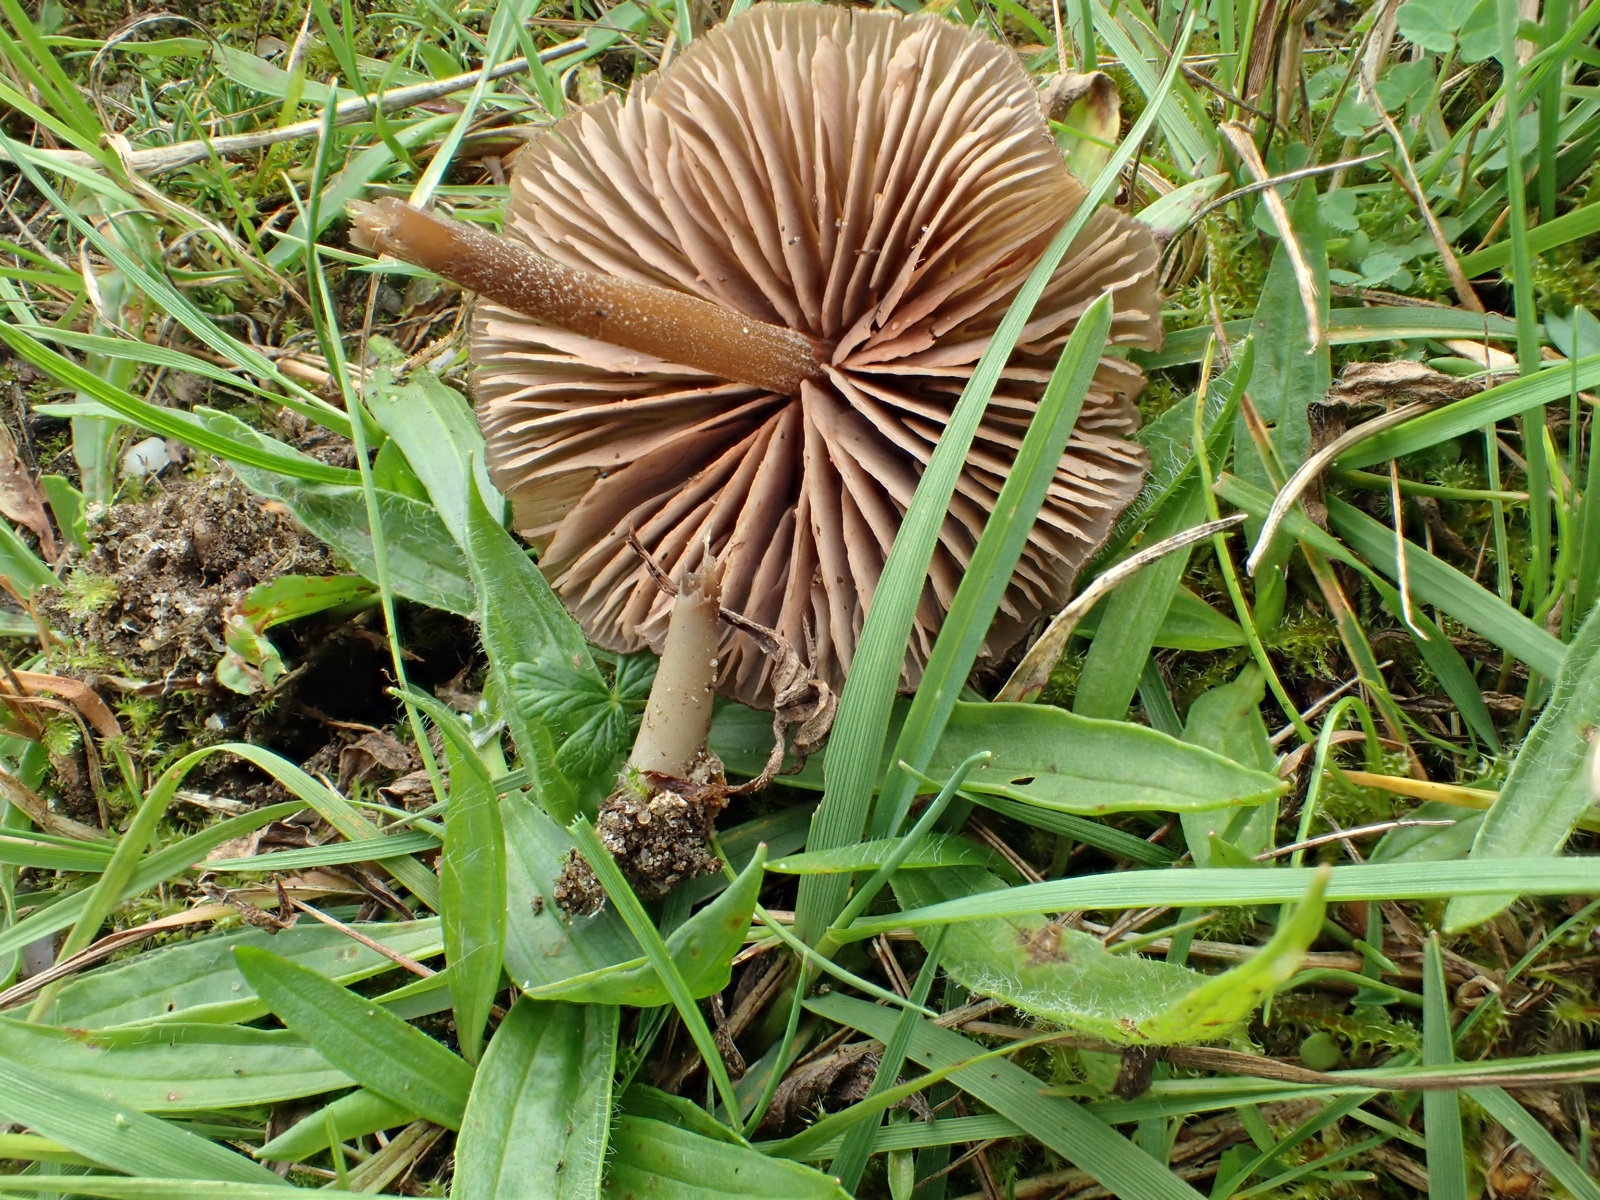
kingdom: Fungi
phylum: Basidiomycota
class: Agaricomycetes
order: Agaricales
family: Entolomataceae
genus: Entoloma
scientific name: Entoloma
